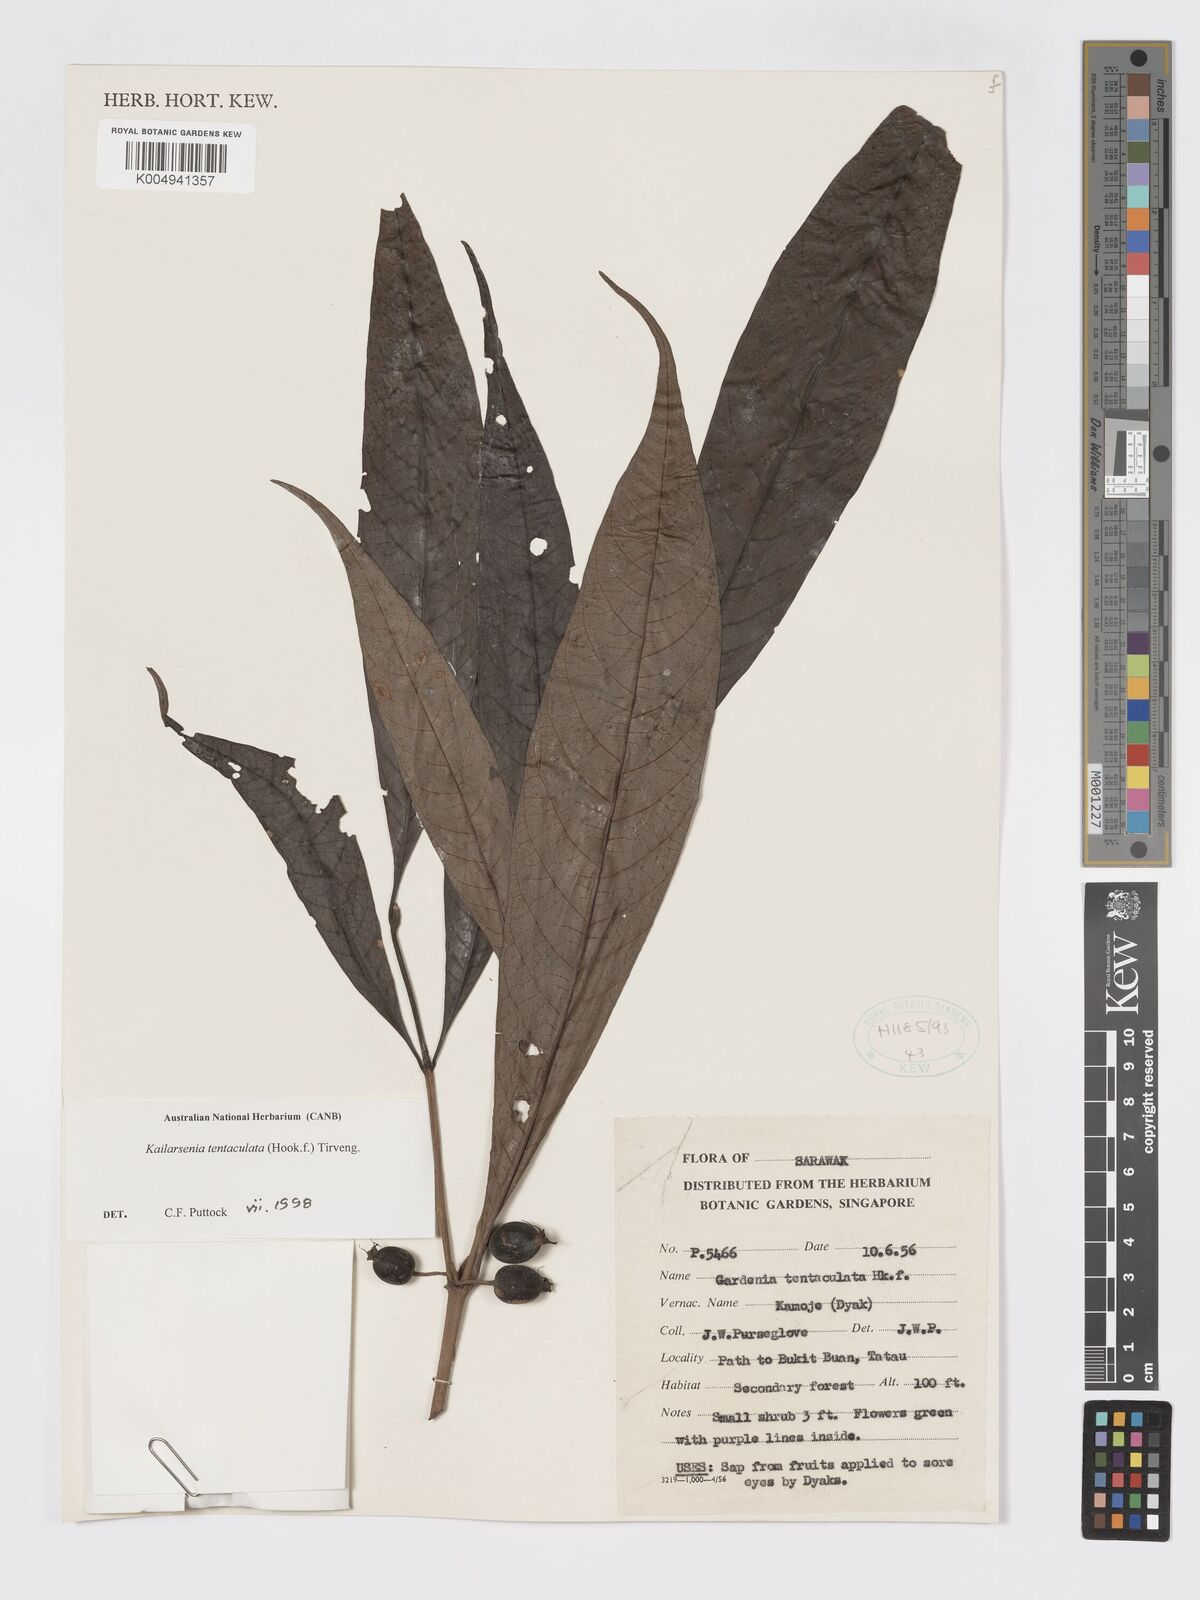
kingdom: Plantae
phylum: Tracheophyta
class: Magnoliopsida
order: Gentianales
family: Rubiaceae
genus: Kailarsenia
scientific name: Kailarsenia tentaculata
